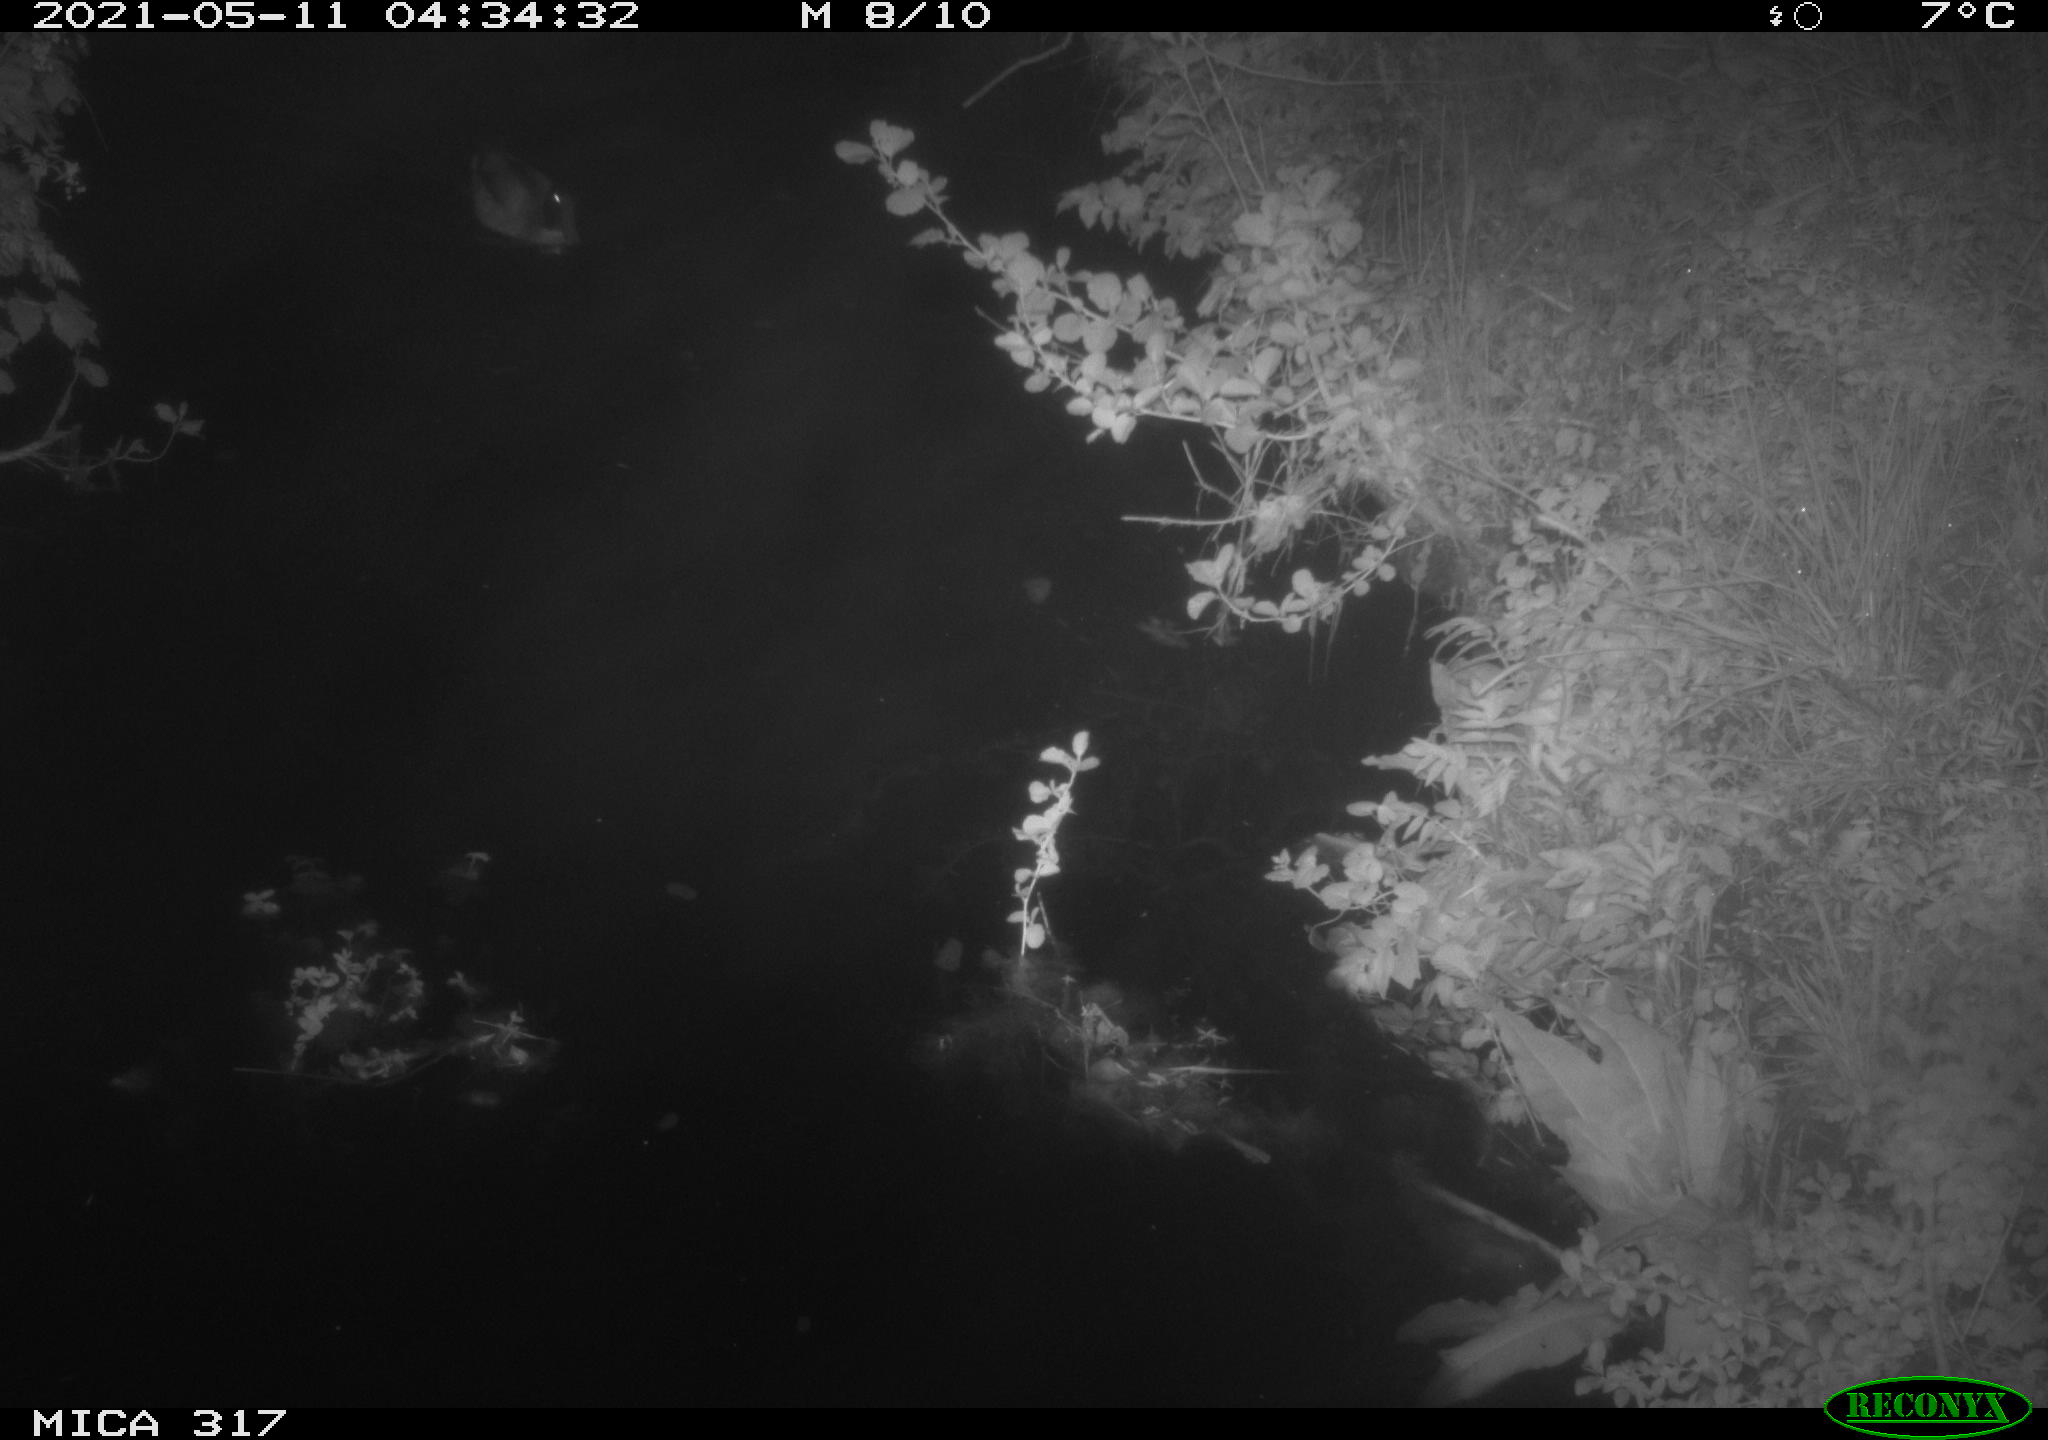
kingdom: Animalia
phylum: Chordata
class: Aves
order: Anseriformes
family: Anatidae
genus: Anas
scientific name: Anas
